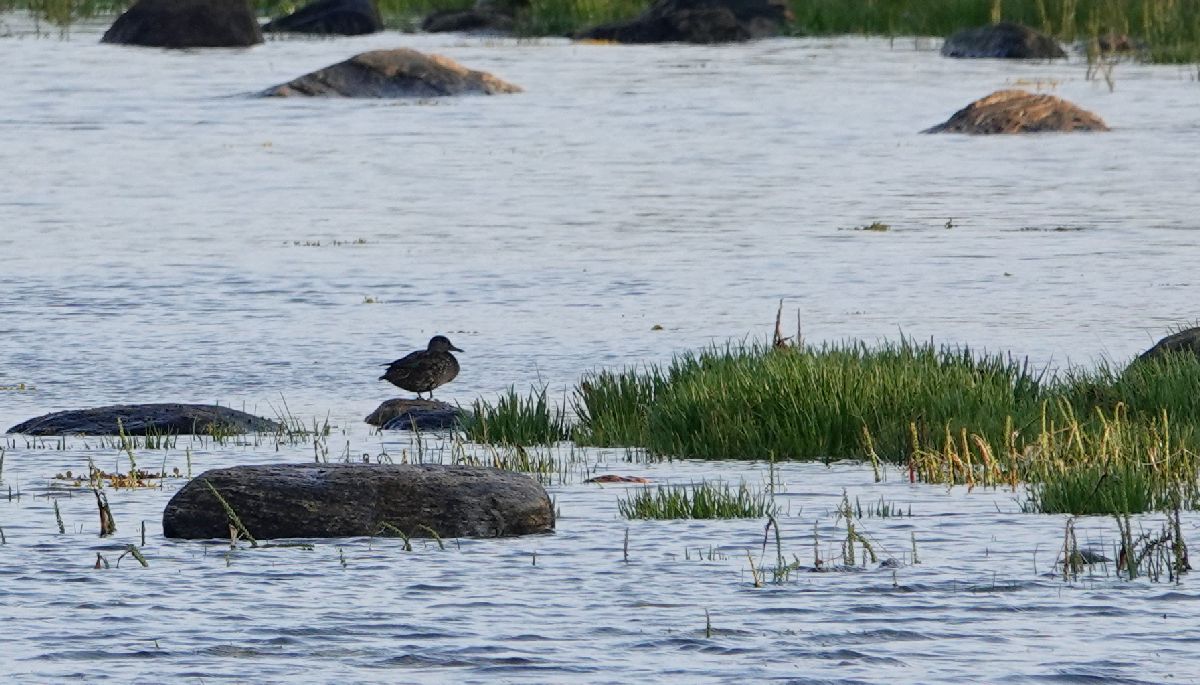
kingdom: Animalia
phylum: Chordata
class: Aves
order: Anseriformes
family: Anatidae
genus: Anas
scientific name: Anas crecca
